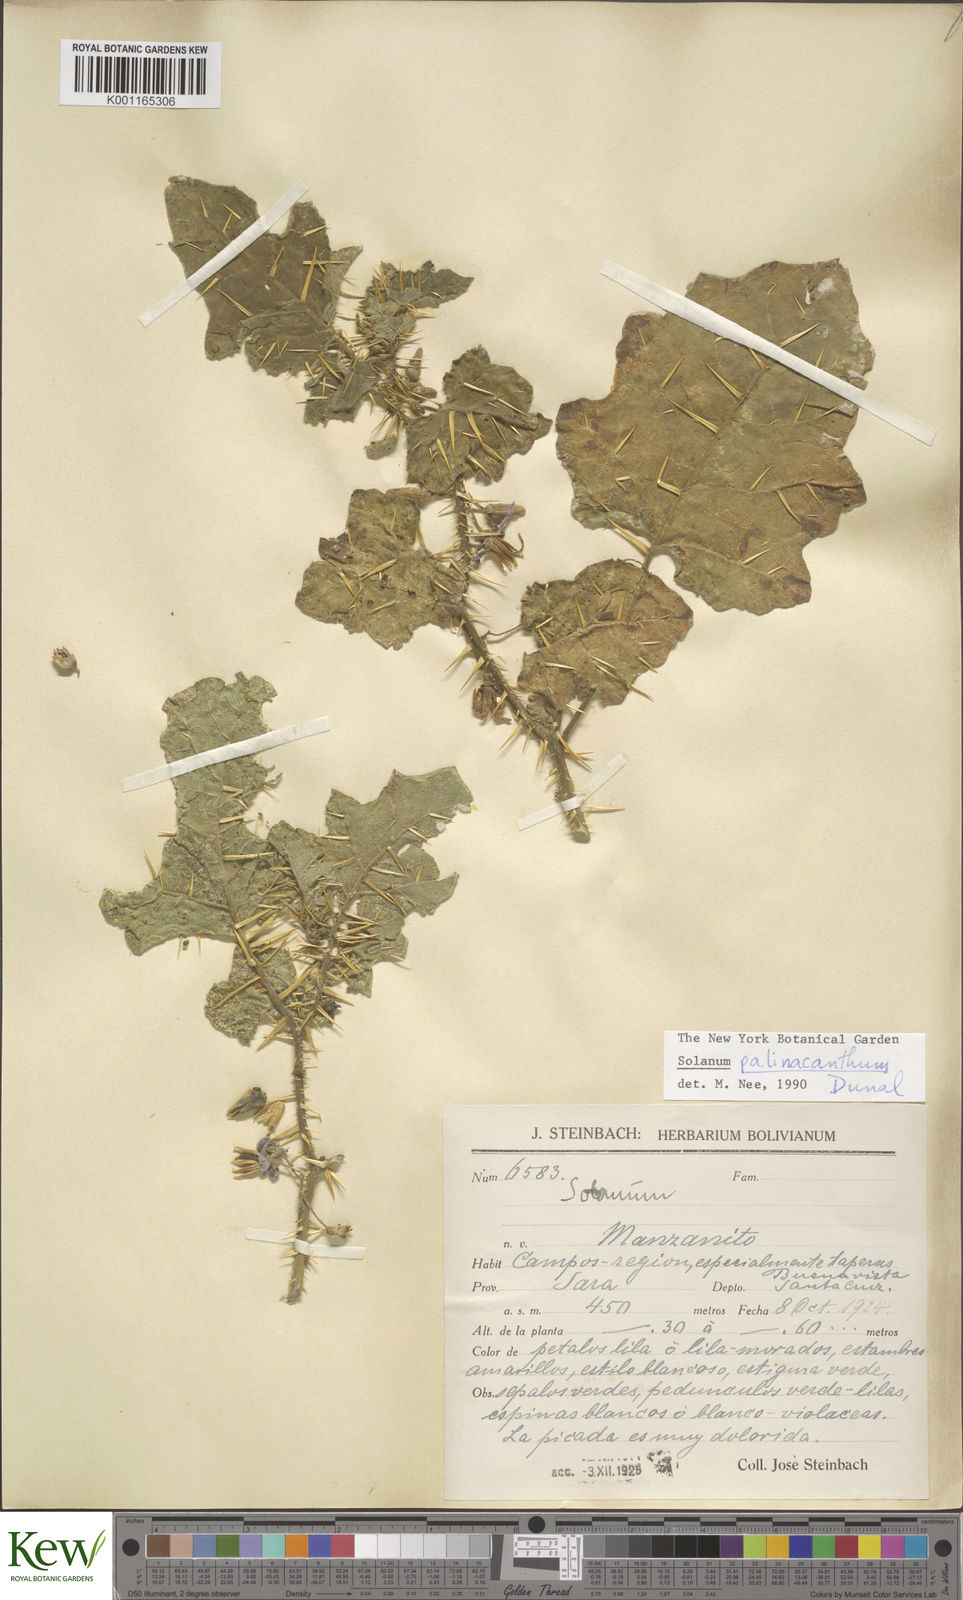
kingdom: Plantae
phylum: Tracheophyta
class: Magnoliopsida
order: Solanales
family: Solanaceae
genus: Solanum
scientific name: Solanum palinacanthum
